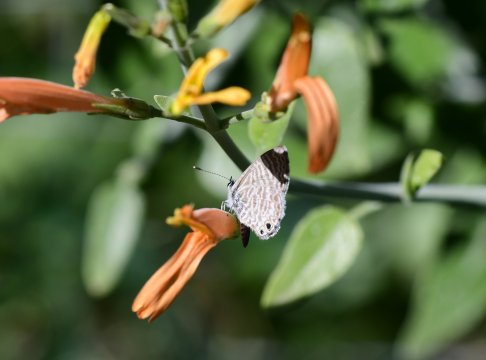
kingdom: Animalia
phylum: Arthropoda
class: Insecta
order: Lepidoptera
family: Lycaenidae
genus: Leptotes
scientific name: Leptotes marina
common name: Marine Blue
